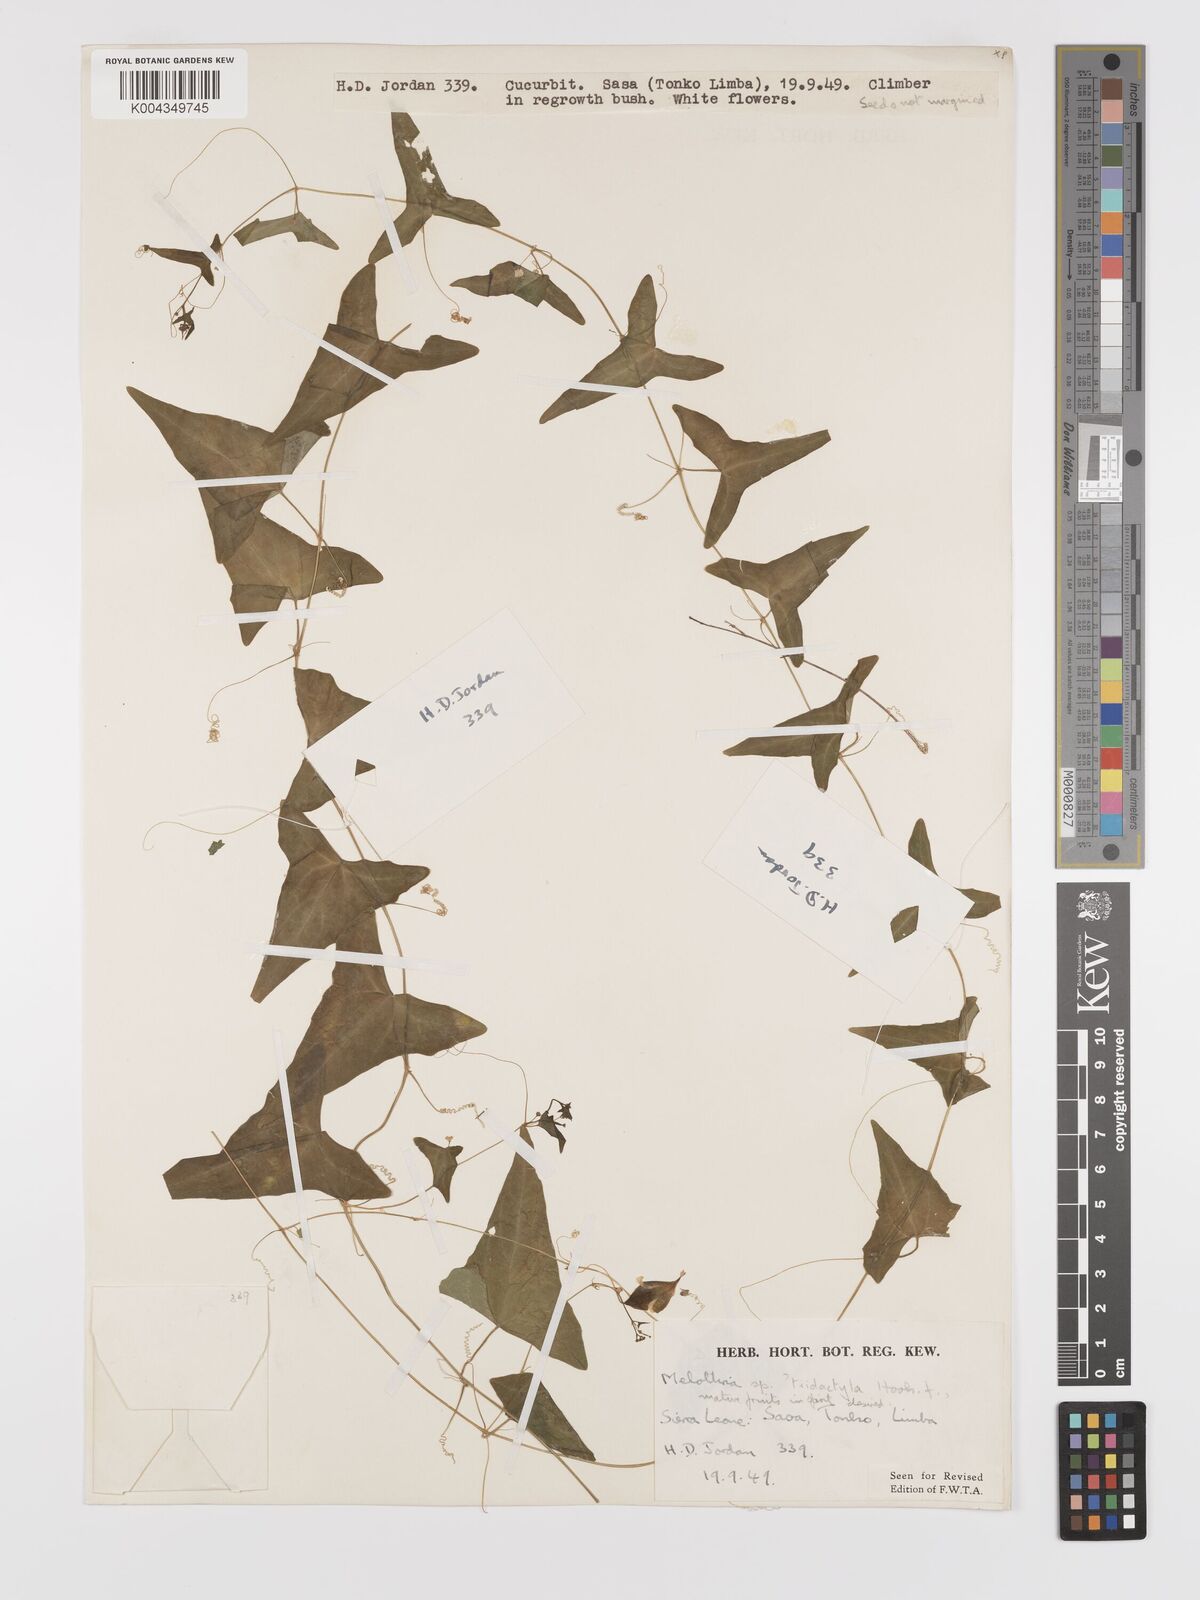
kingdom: Plantae
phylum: Tracheophyta
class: Magnoliopsida
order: Cucurbitales
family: Cucurbitaceae
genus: Zehneria
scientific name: Zehneria thwaitesii
